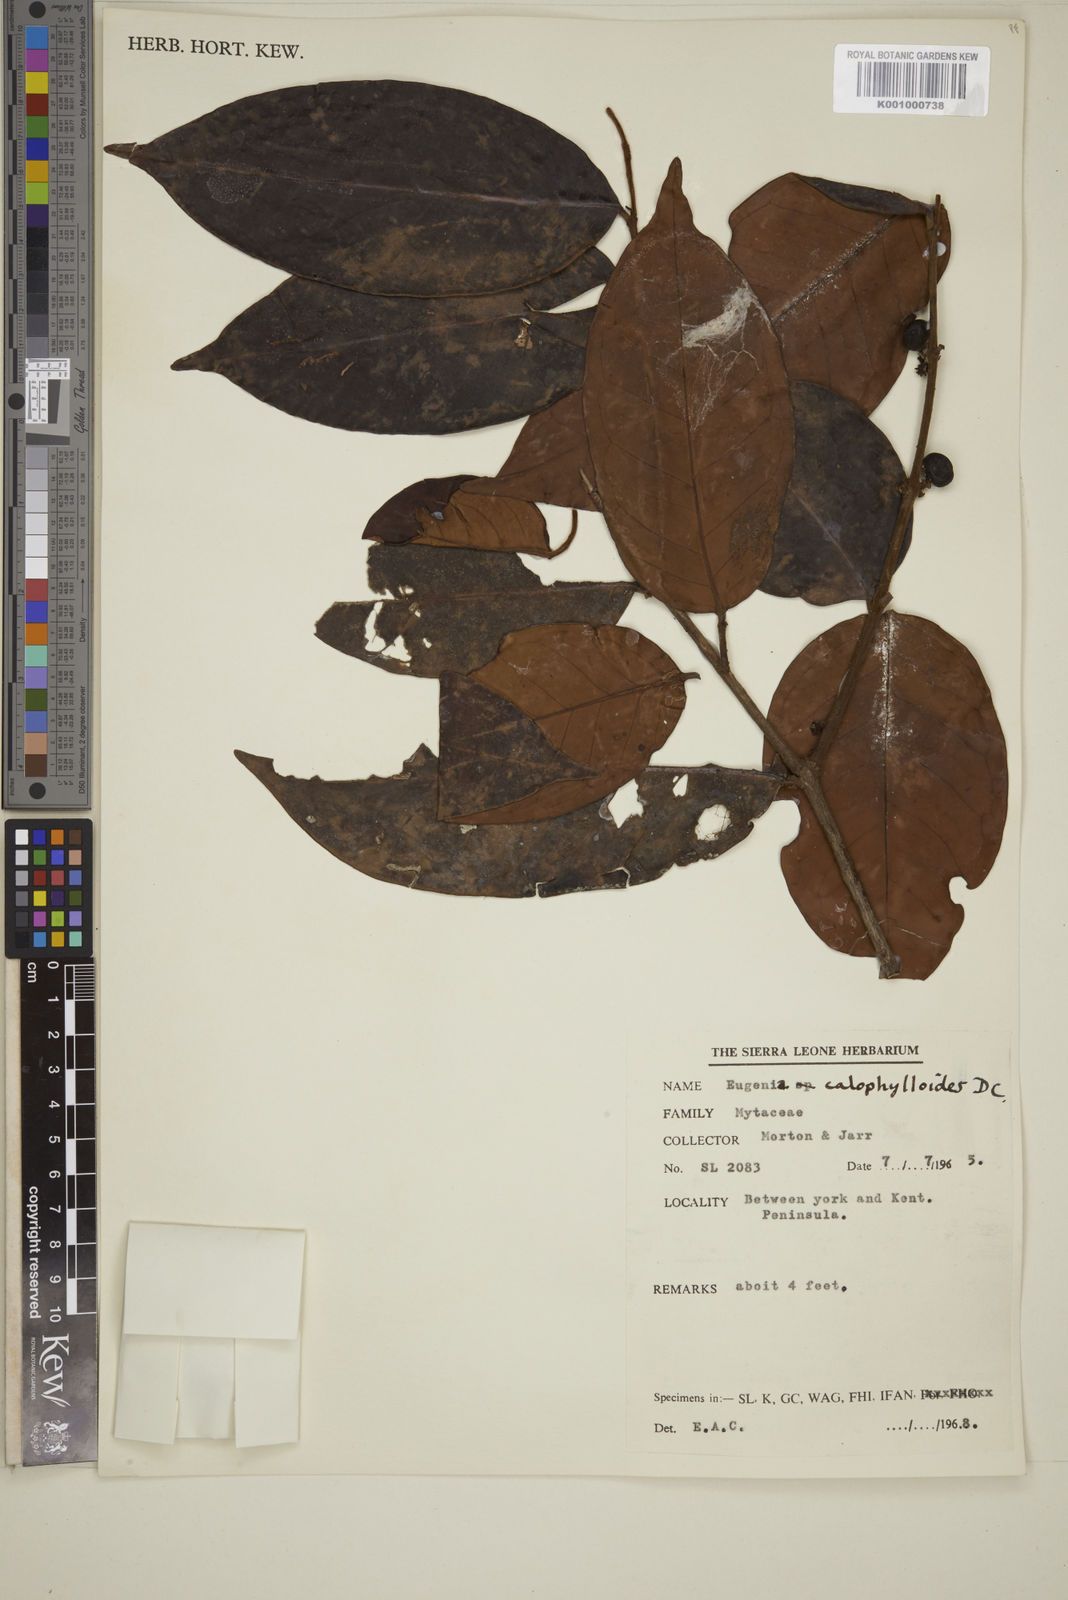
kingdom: Plantae
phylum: Tracheophyta
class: Magnoliopsida
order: Myrtales
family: Myrtaceae
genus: Eugenia
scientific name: Eugenia calophylloides
